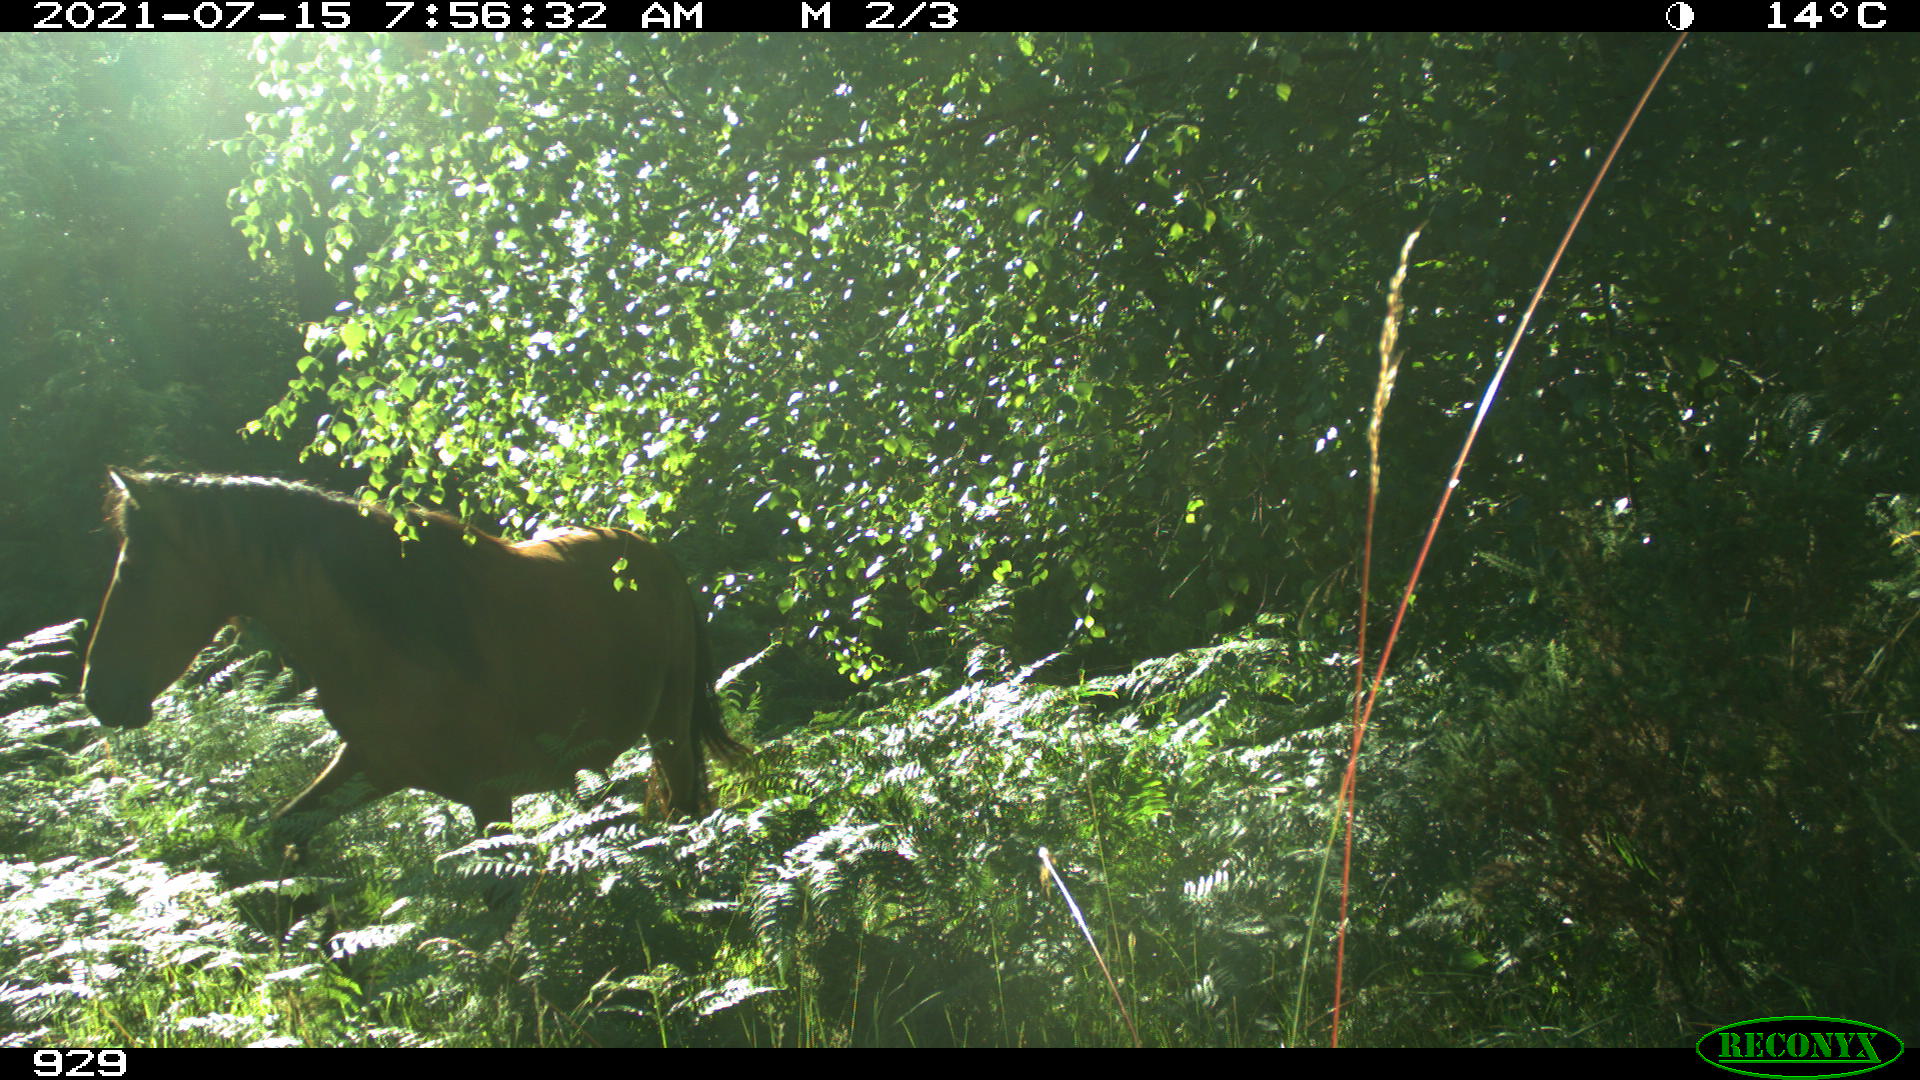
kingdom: Animalia
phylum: Chordata
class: Mammalia
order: Perissodactyla
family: Equidae
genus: Equus
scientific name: Equus caballus
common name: Horse
